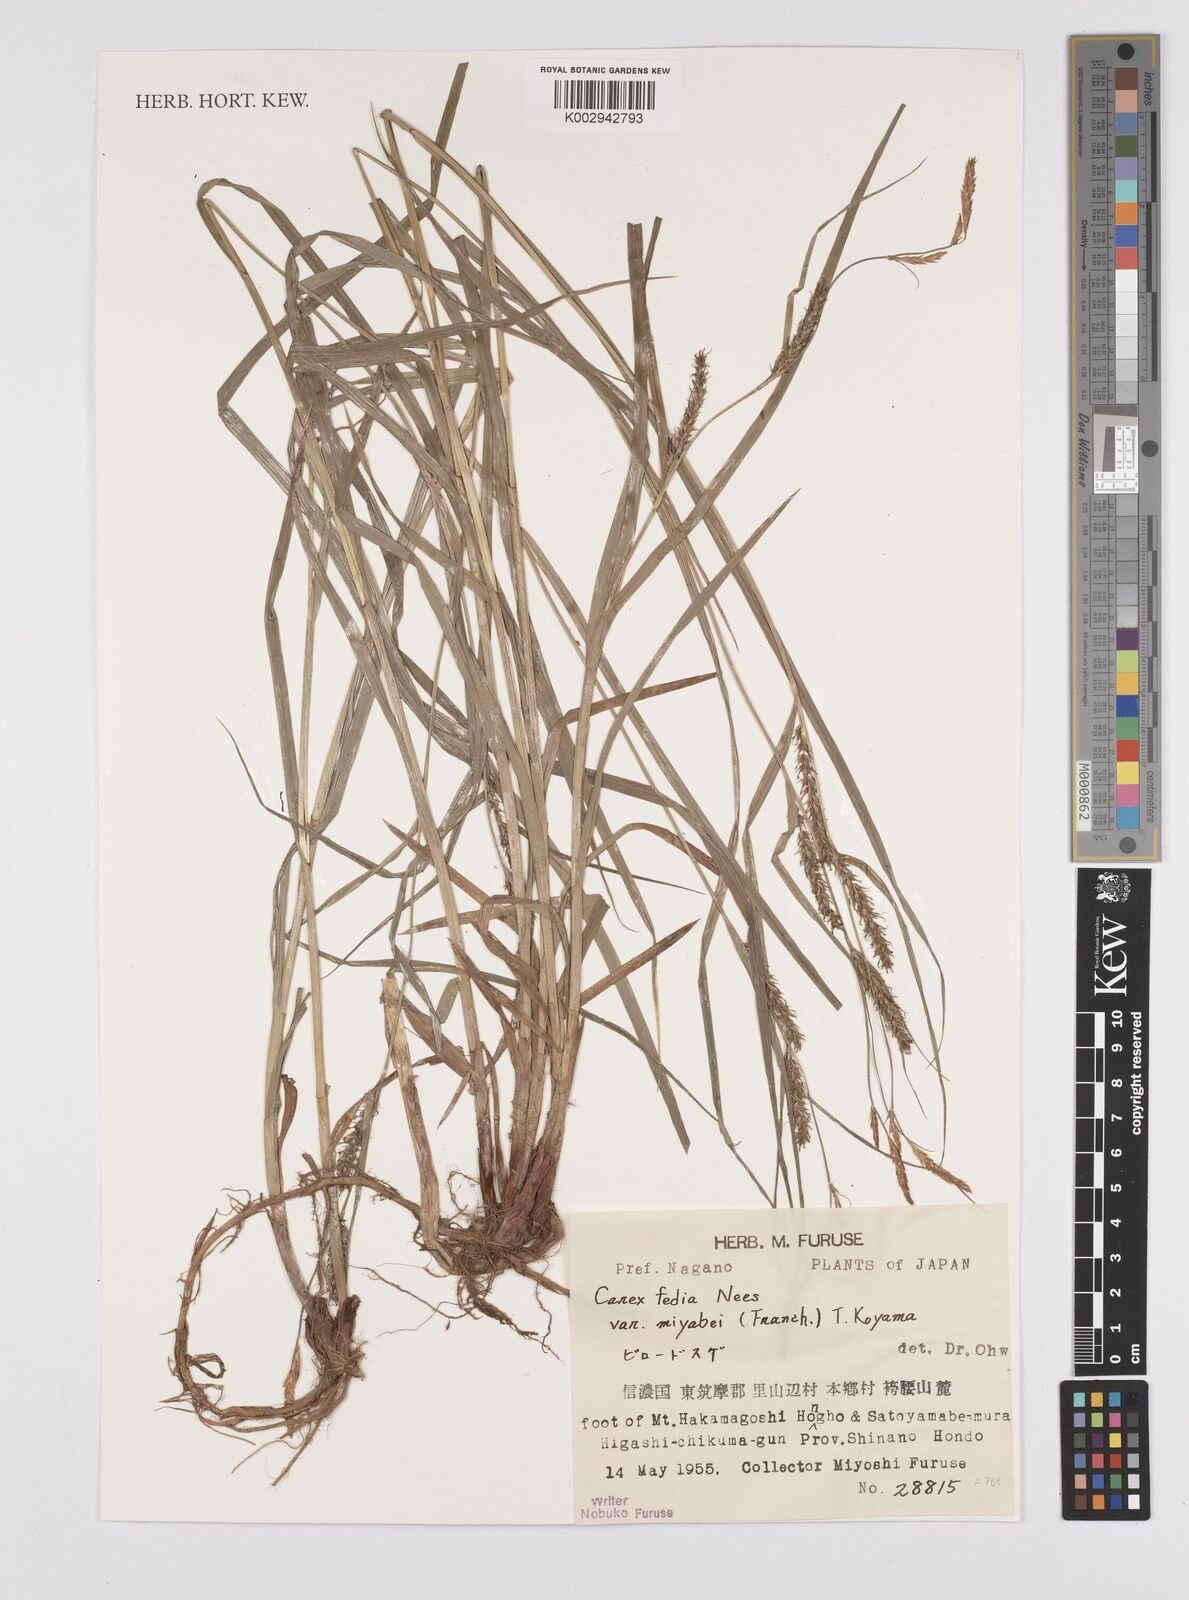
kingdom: Plantae
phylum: Tracheophyta
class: Liliopsida
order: Poales
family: Cyperaceae
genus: Carex
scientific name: Carex fedia
